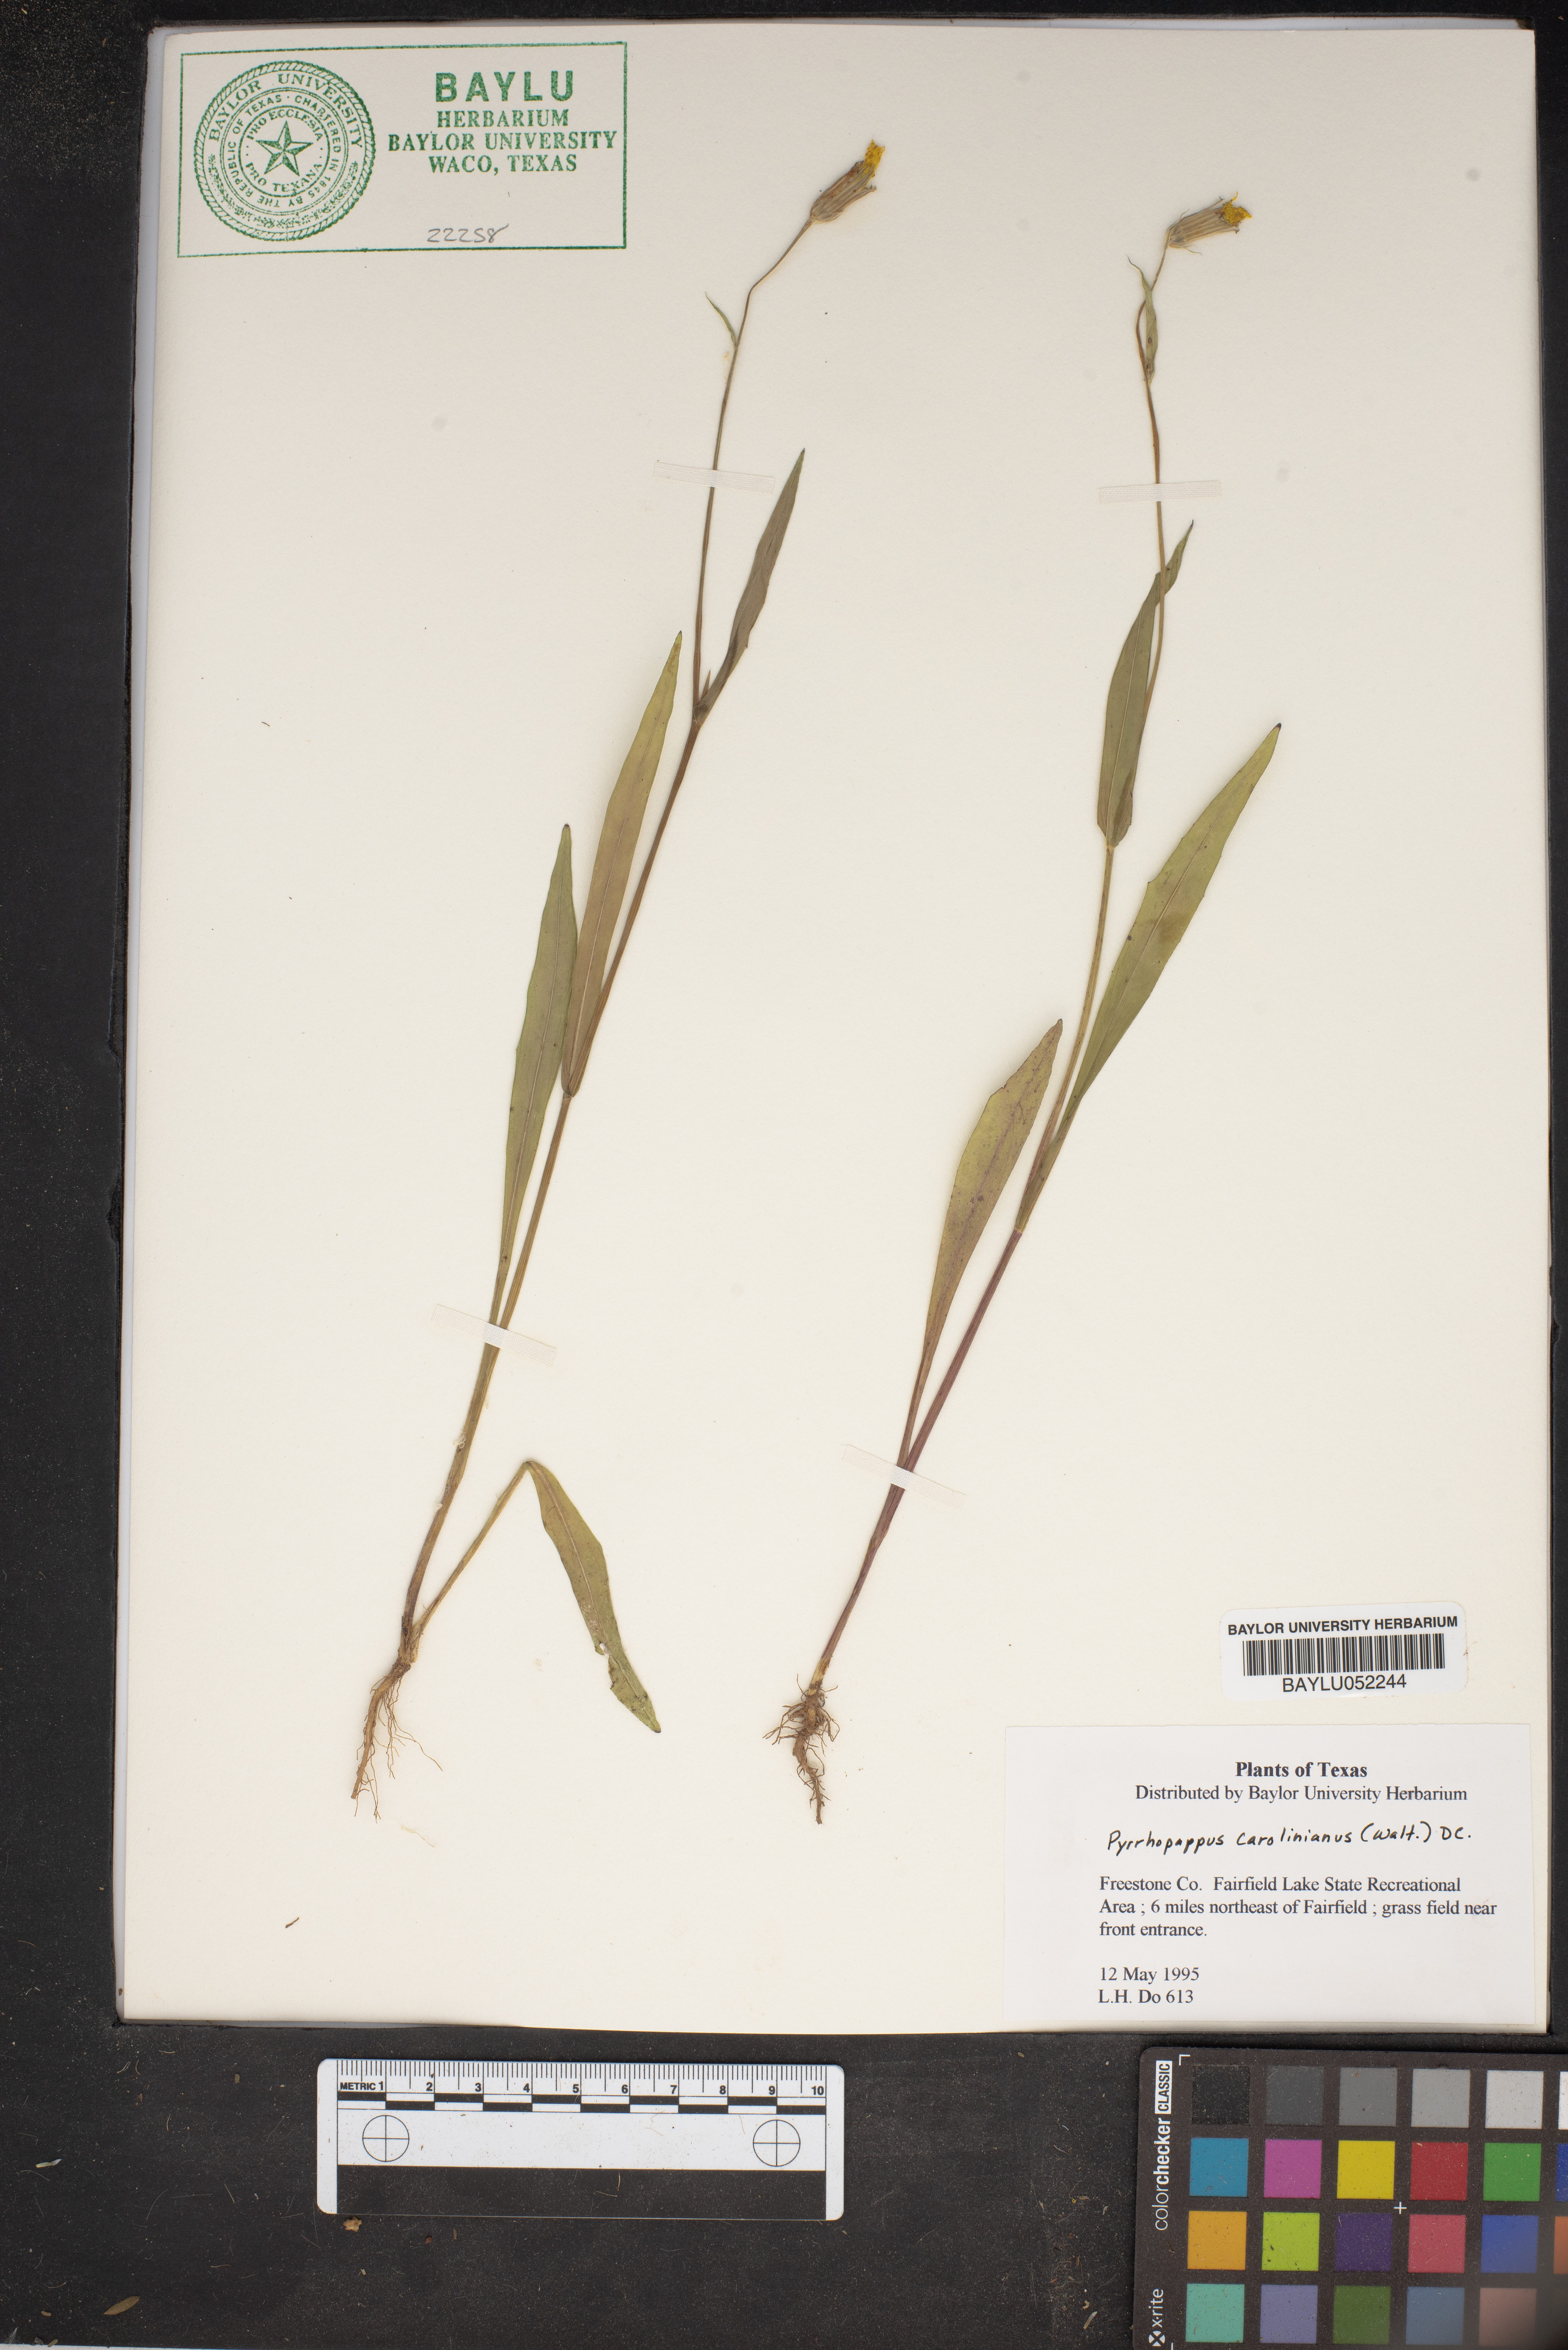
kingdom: Plantae
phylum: Tracheophyta
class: Magnoliopsida
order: Asterales
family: Asteraceae
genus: Pyrrhopappus
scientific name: Pyrrhopappus carolinianus
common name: Carolina desert-chicory
